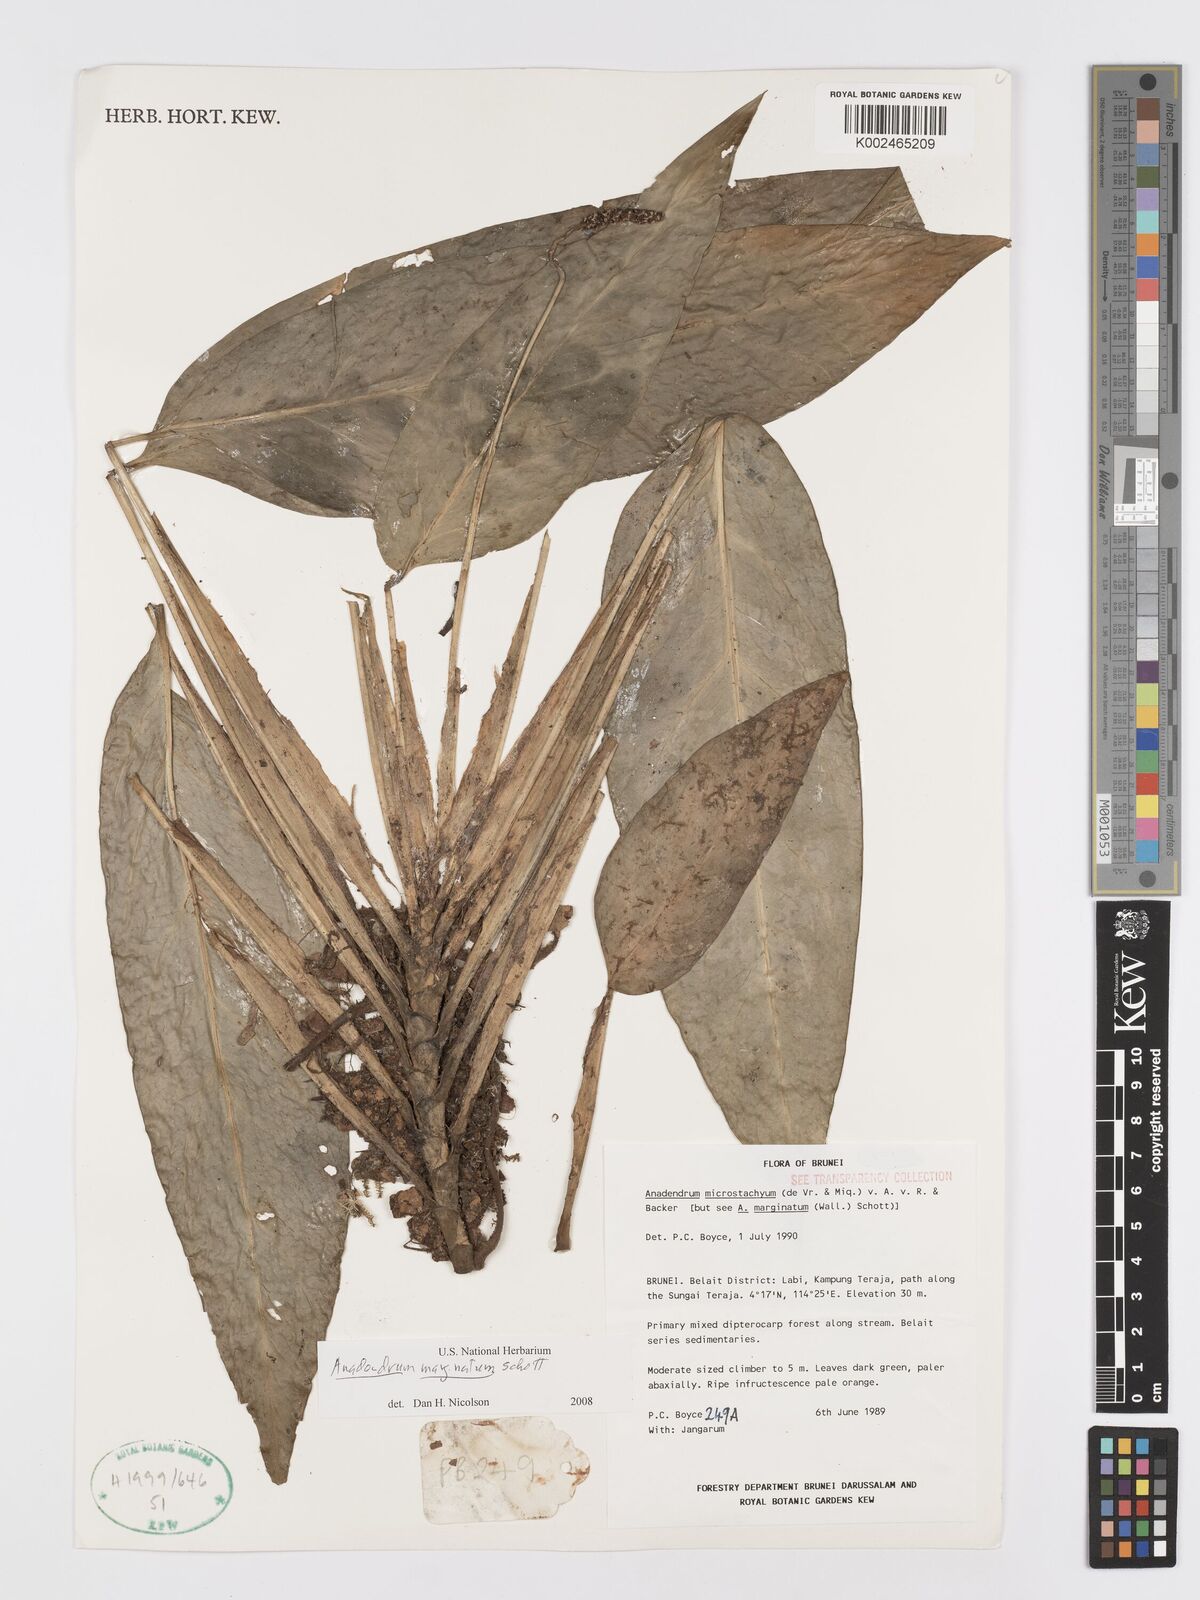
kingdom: Plantae
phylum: Tracheophyta
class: Liliopsida
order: Alismatales
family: Araceae
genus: Anadendrum
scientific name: Anadendrum marginatum
